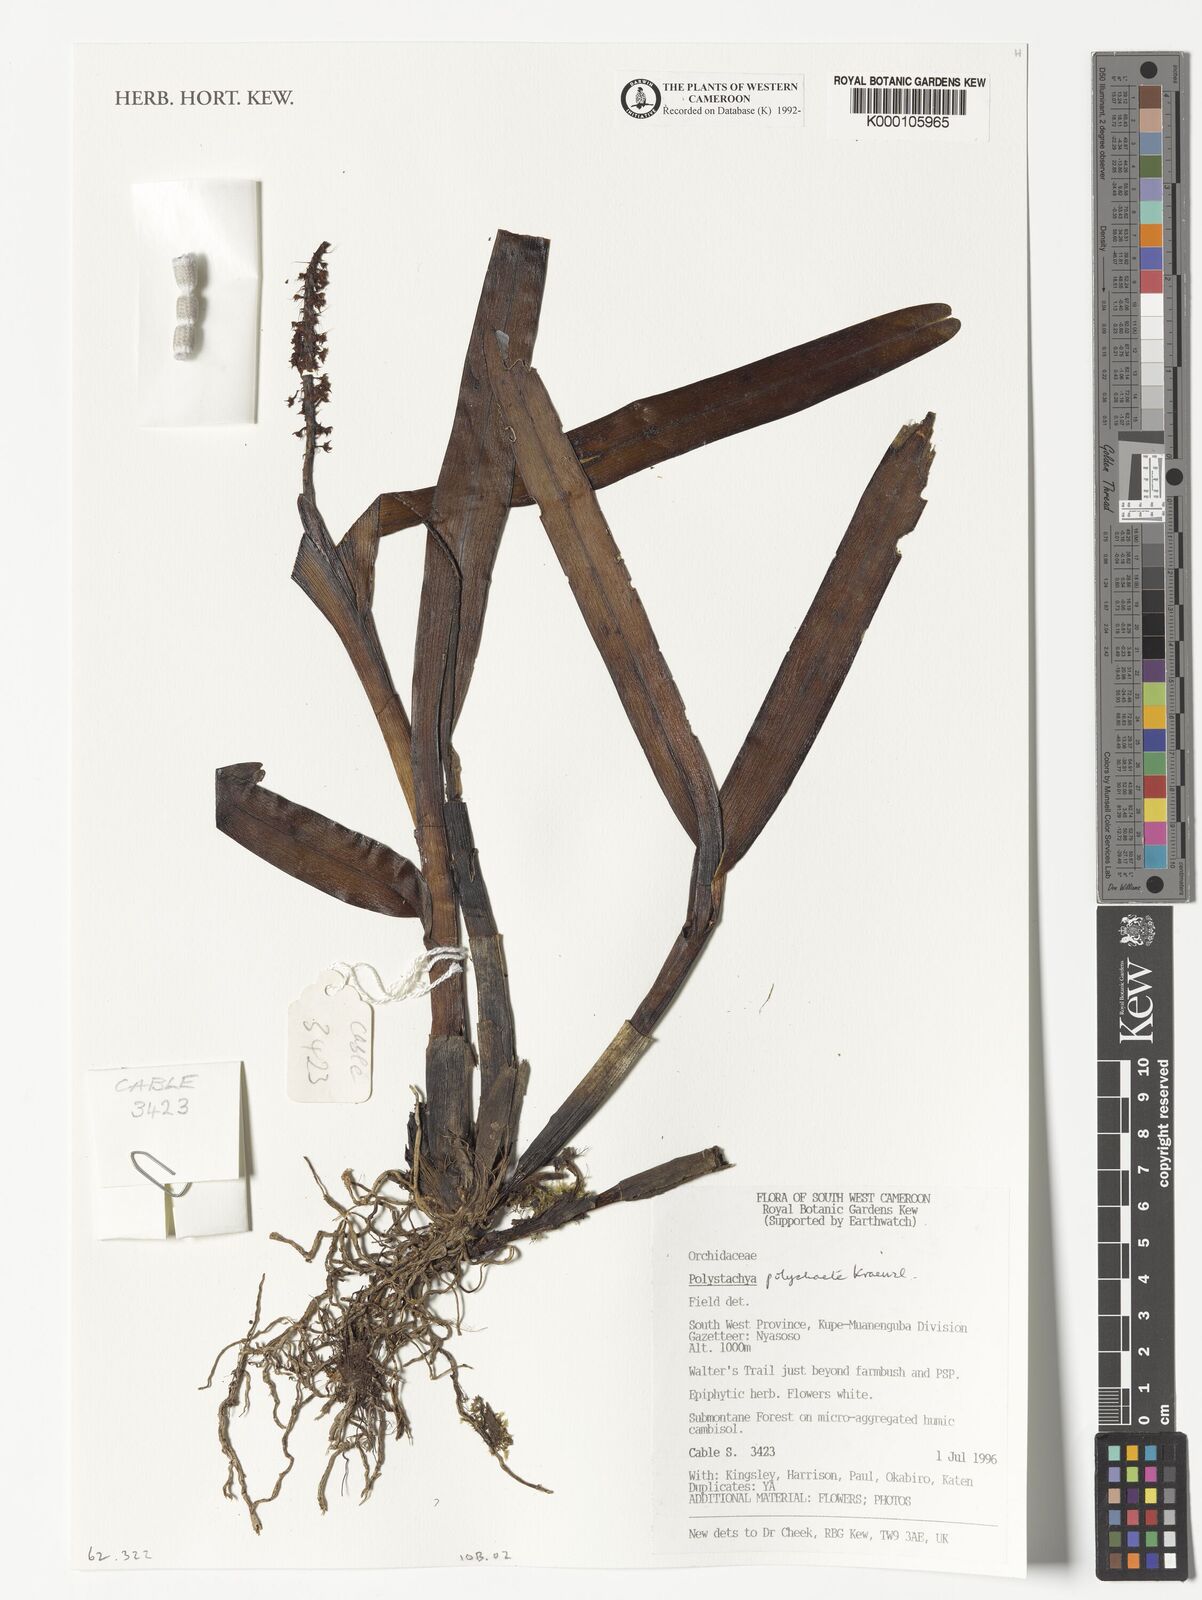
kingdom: Plantae
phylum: Tracheophyta
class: Liliopsida
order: Asparagales
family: Orchidaceae
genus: Polystachya
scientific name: Polystachya polychaete
